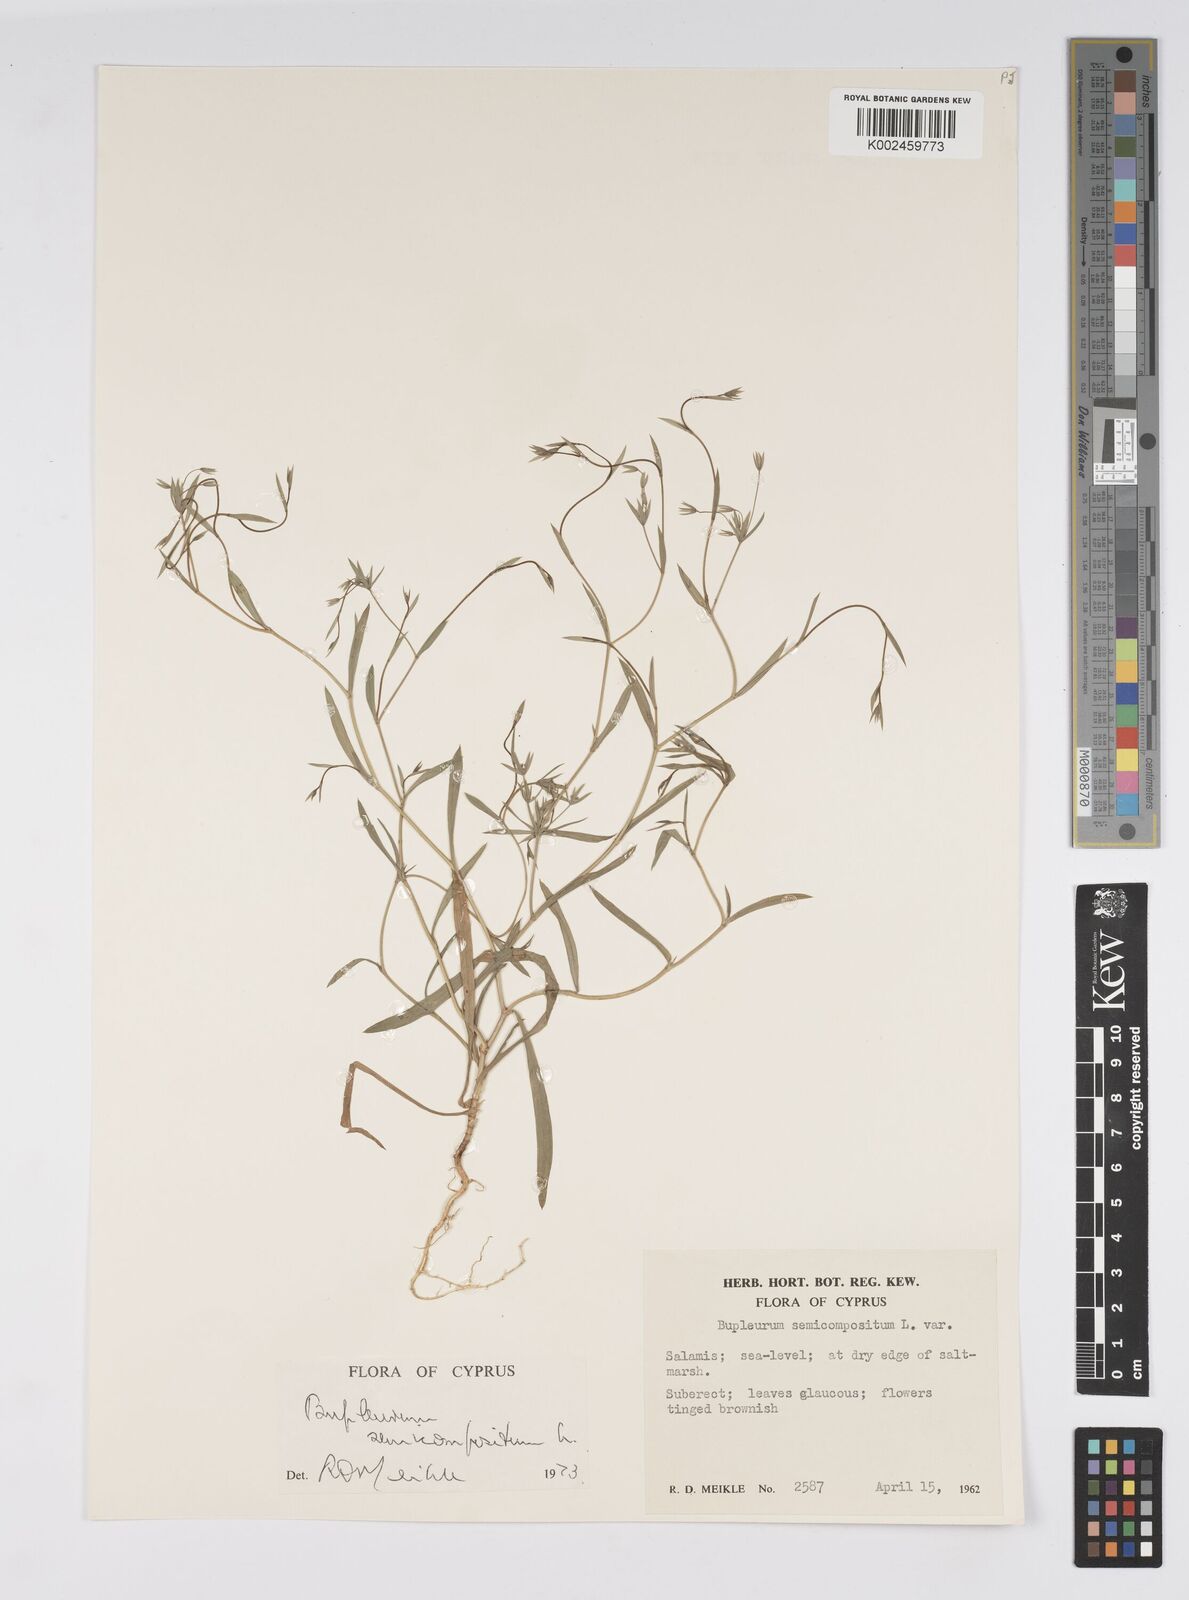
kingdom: Plantae
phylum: Tracheophyta
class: Magnoliopsida
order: Apiales
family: Apiaceae
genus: Bupleurum
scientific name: Bupleurum semicompositum
